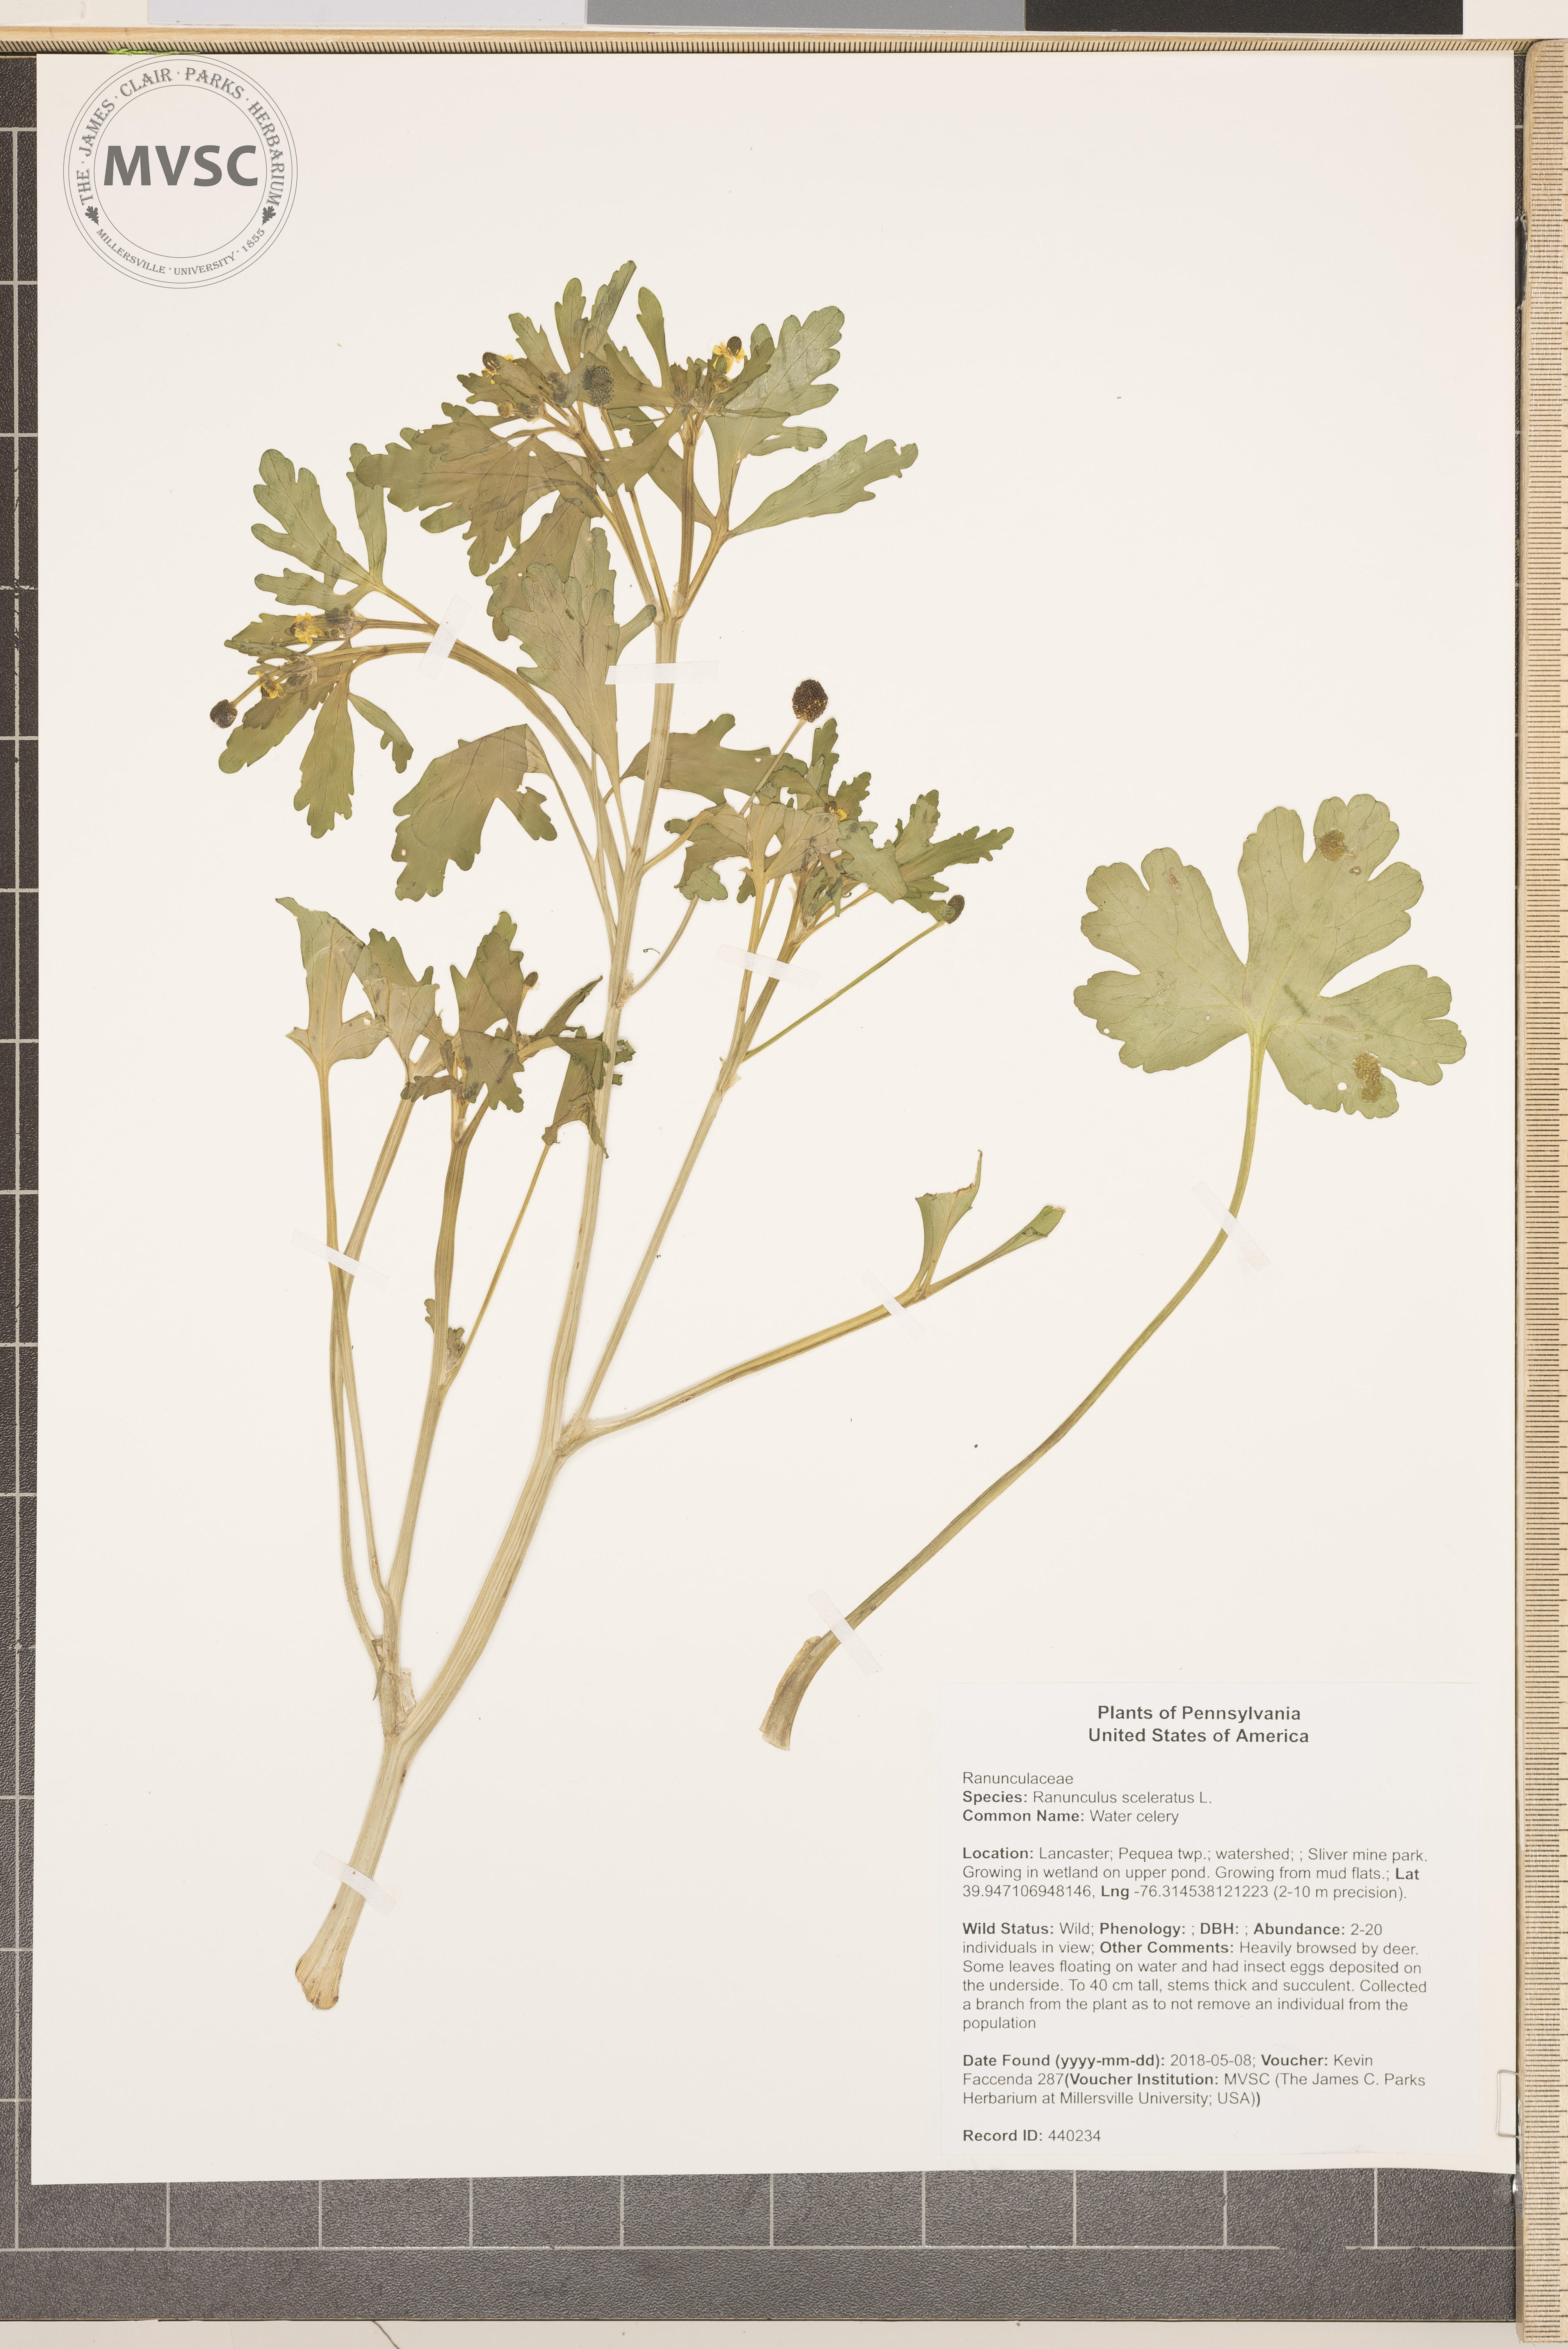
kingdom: Plantae
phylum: Tracheophyta
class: Magnoliopsida
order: Ranunculales
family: Ranunculaceae
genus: Ranunculus
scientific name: Ranunculus sceleratus
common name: Water celery
